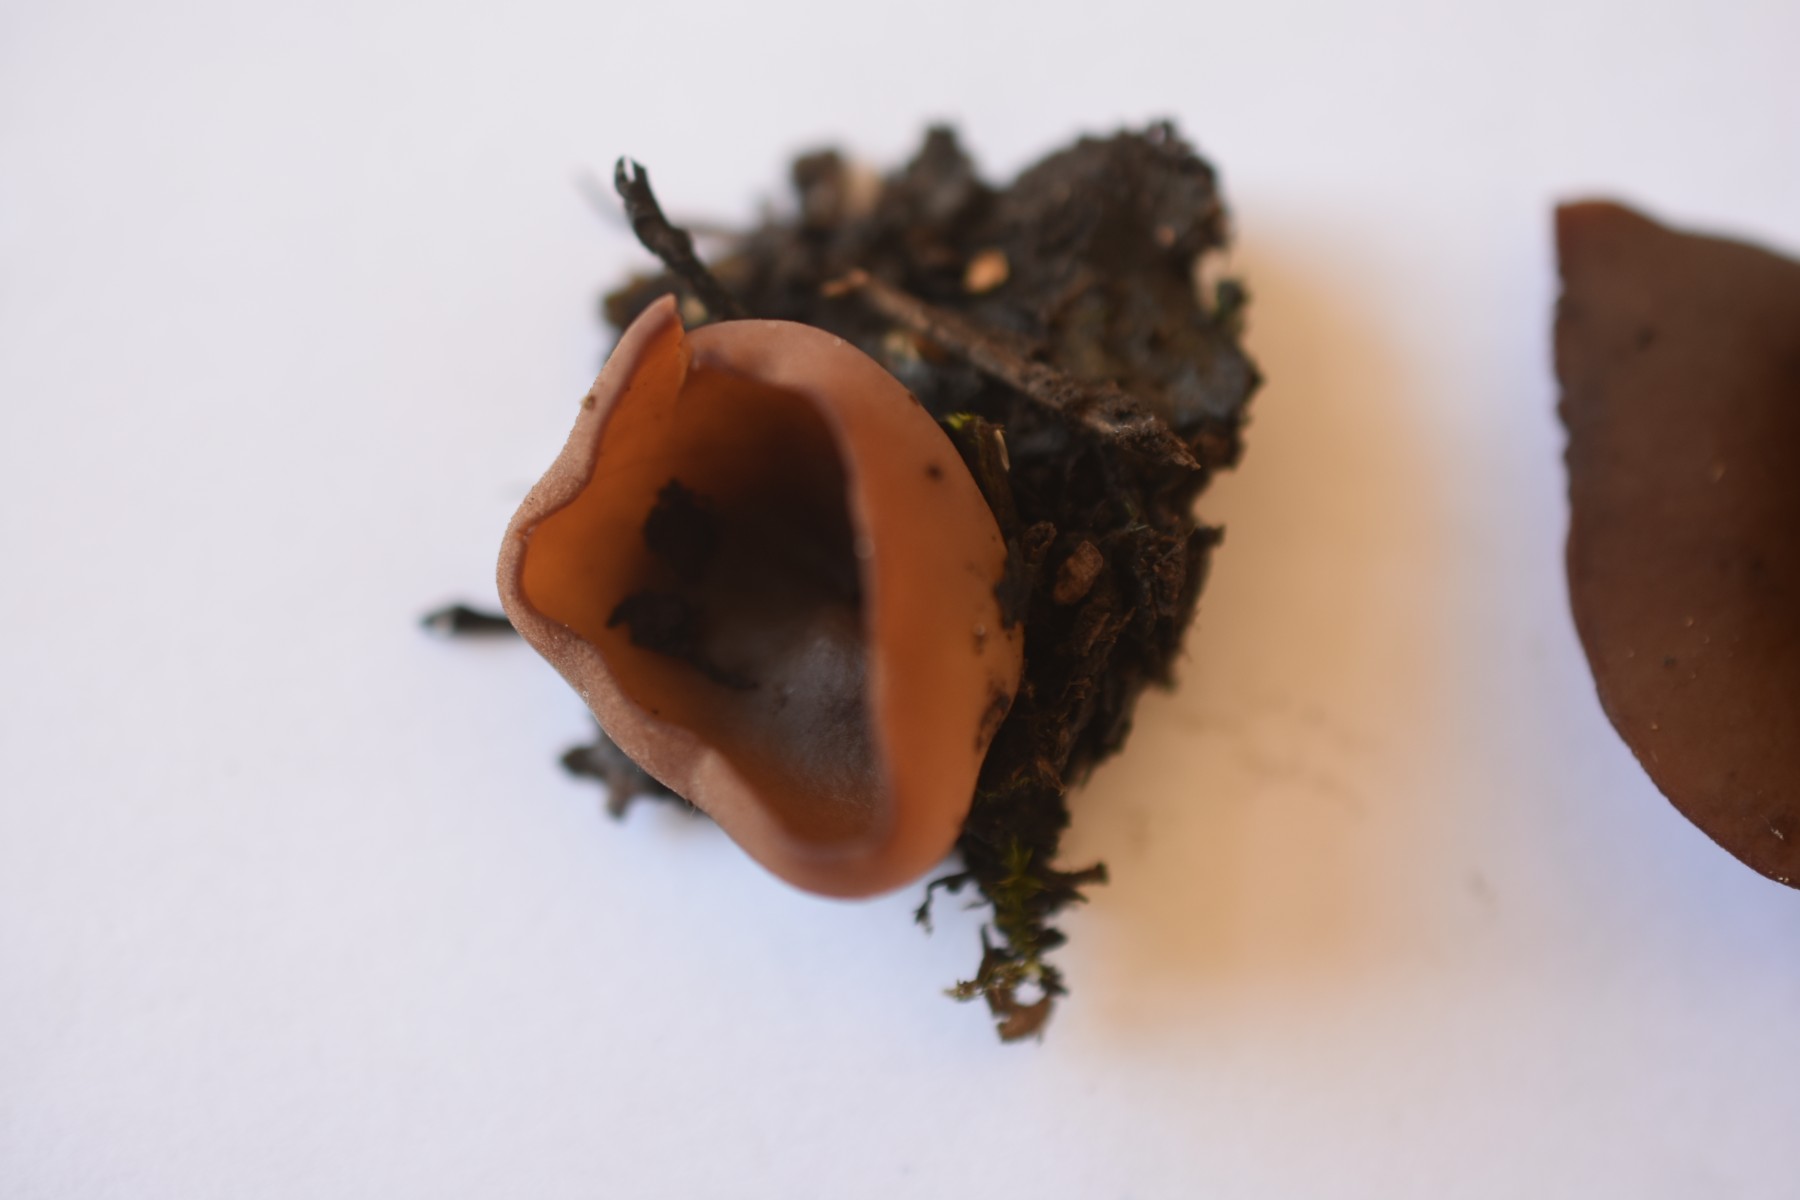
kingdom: Fungi
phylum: Ascomycota
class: Pezizomycetes
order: Pezizales
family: Pezizaceae
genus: Adelphella
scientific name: Adelphella babingtonii
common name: kastaniebrun bægersvamp
